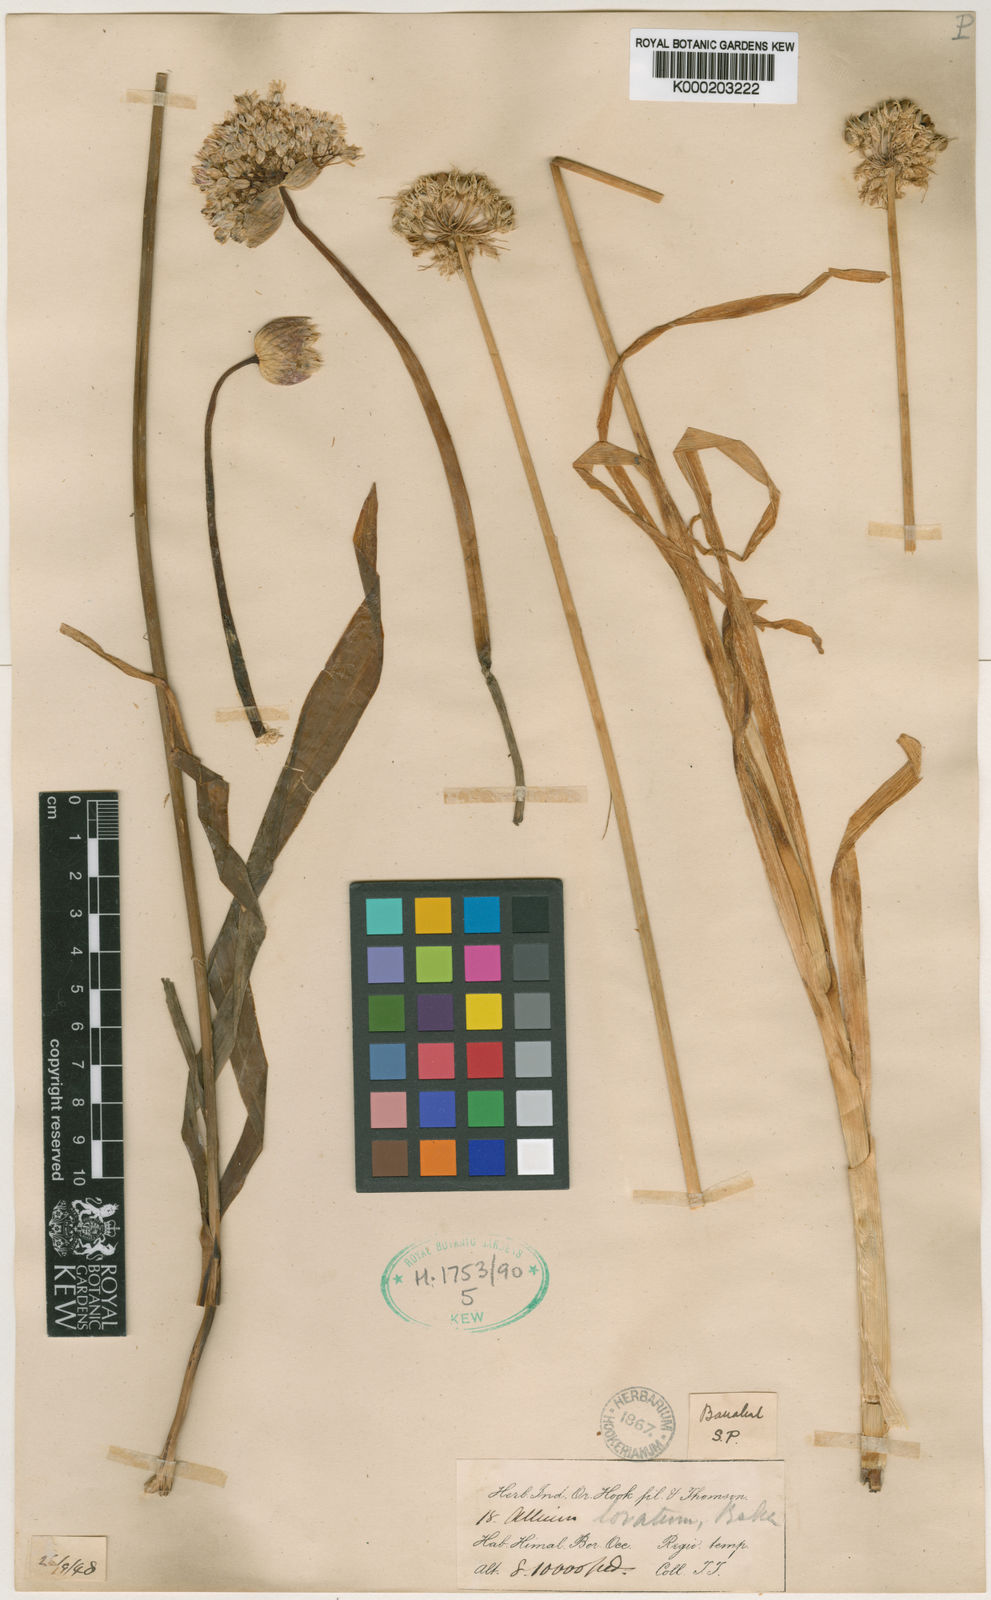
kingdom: Plantae
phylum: Tracheophyta
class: Liliopsida
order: Asparagales
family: Amaryllidaceae
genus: Allium
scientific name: Allium loratum
